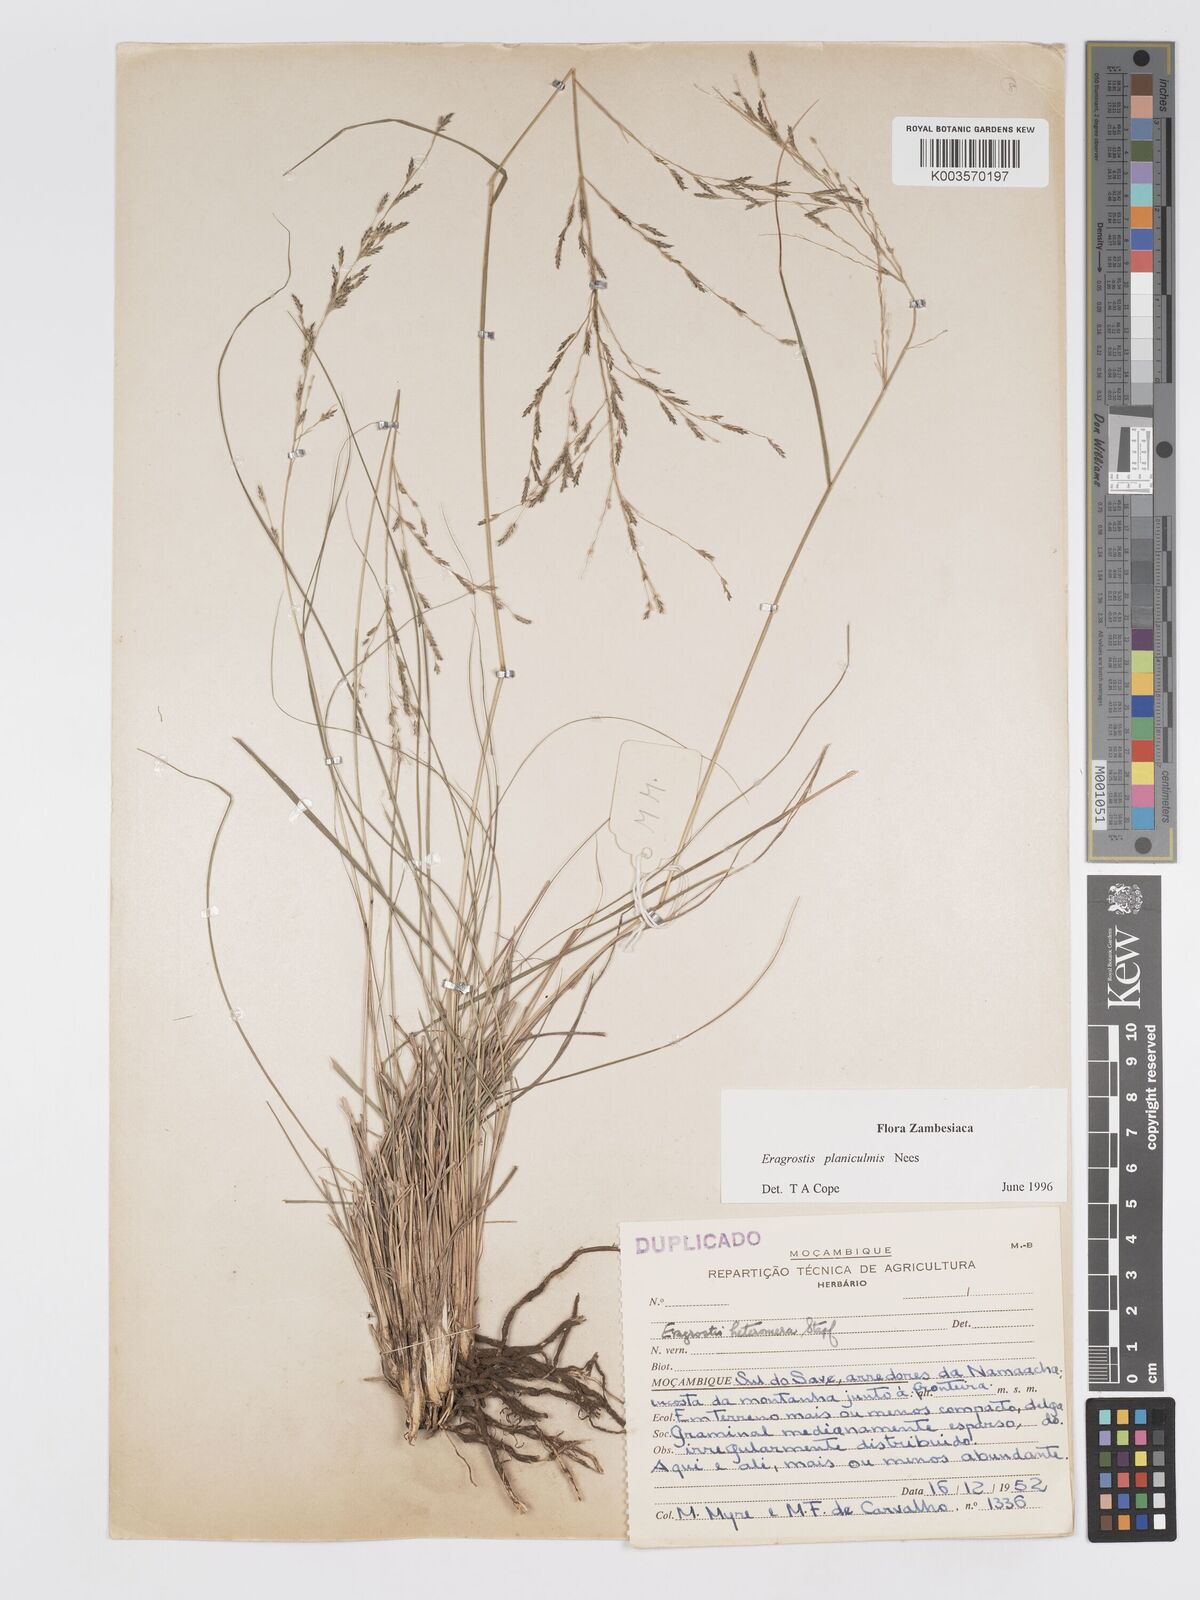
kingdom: Plantae
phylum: Tracheophyta
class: Liliopsida
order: Poales
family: Poaceae
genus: Eragrostis
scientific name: Eragrostis planiculmis
